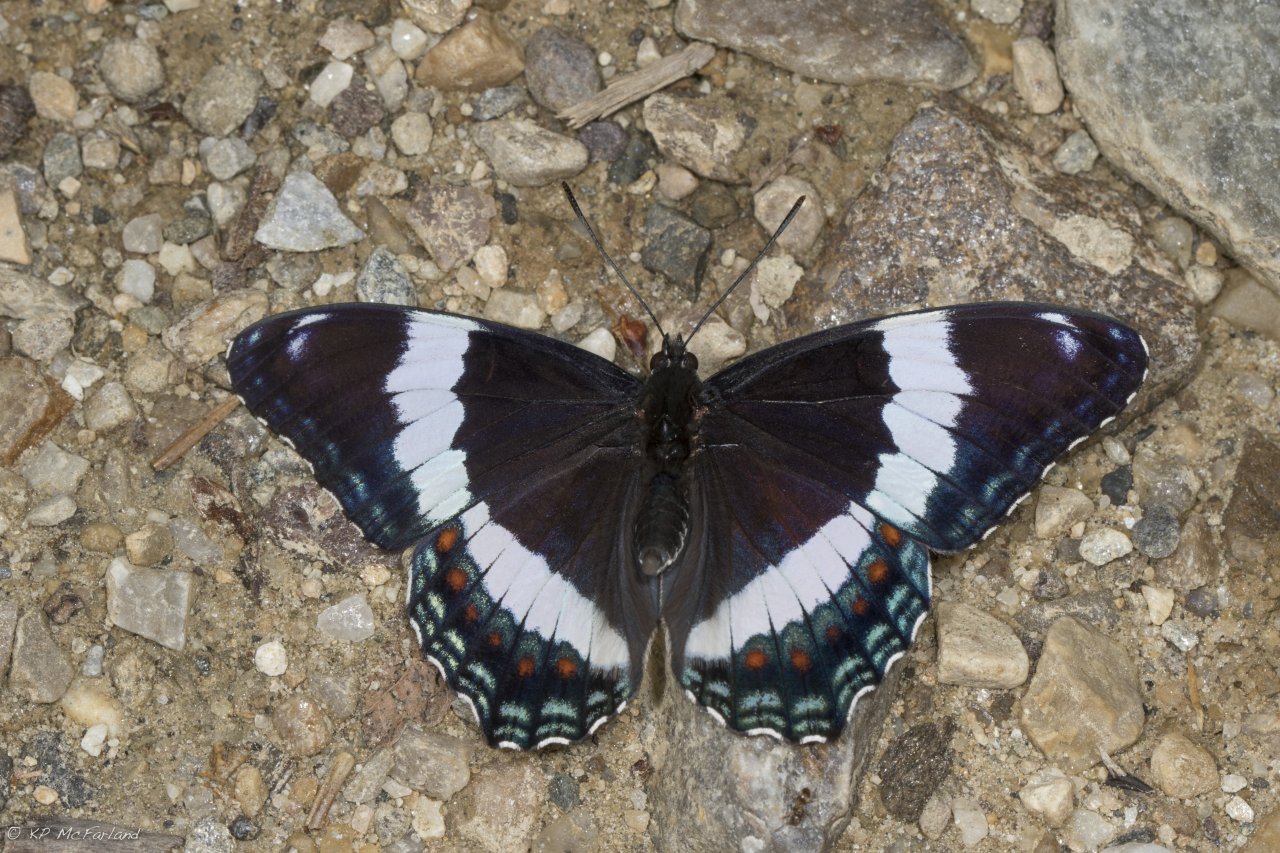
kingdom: Animalia
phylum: Arthropoda
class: Insecta
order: Lepidoptera
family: Nymphalidae
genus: Limenitis
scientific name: Limenitis arthemis
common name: Red-spotted Admiral
